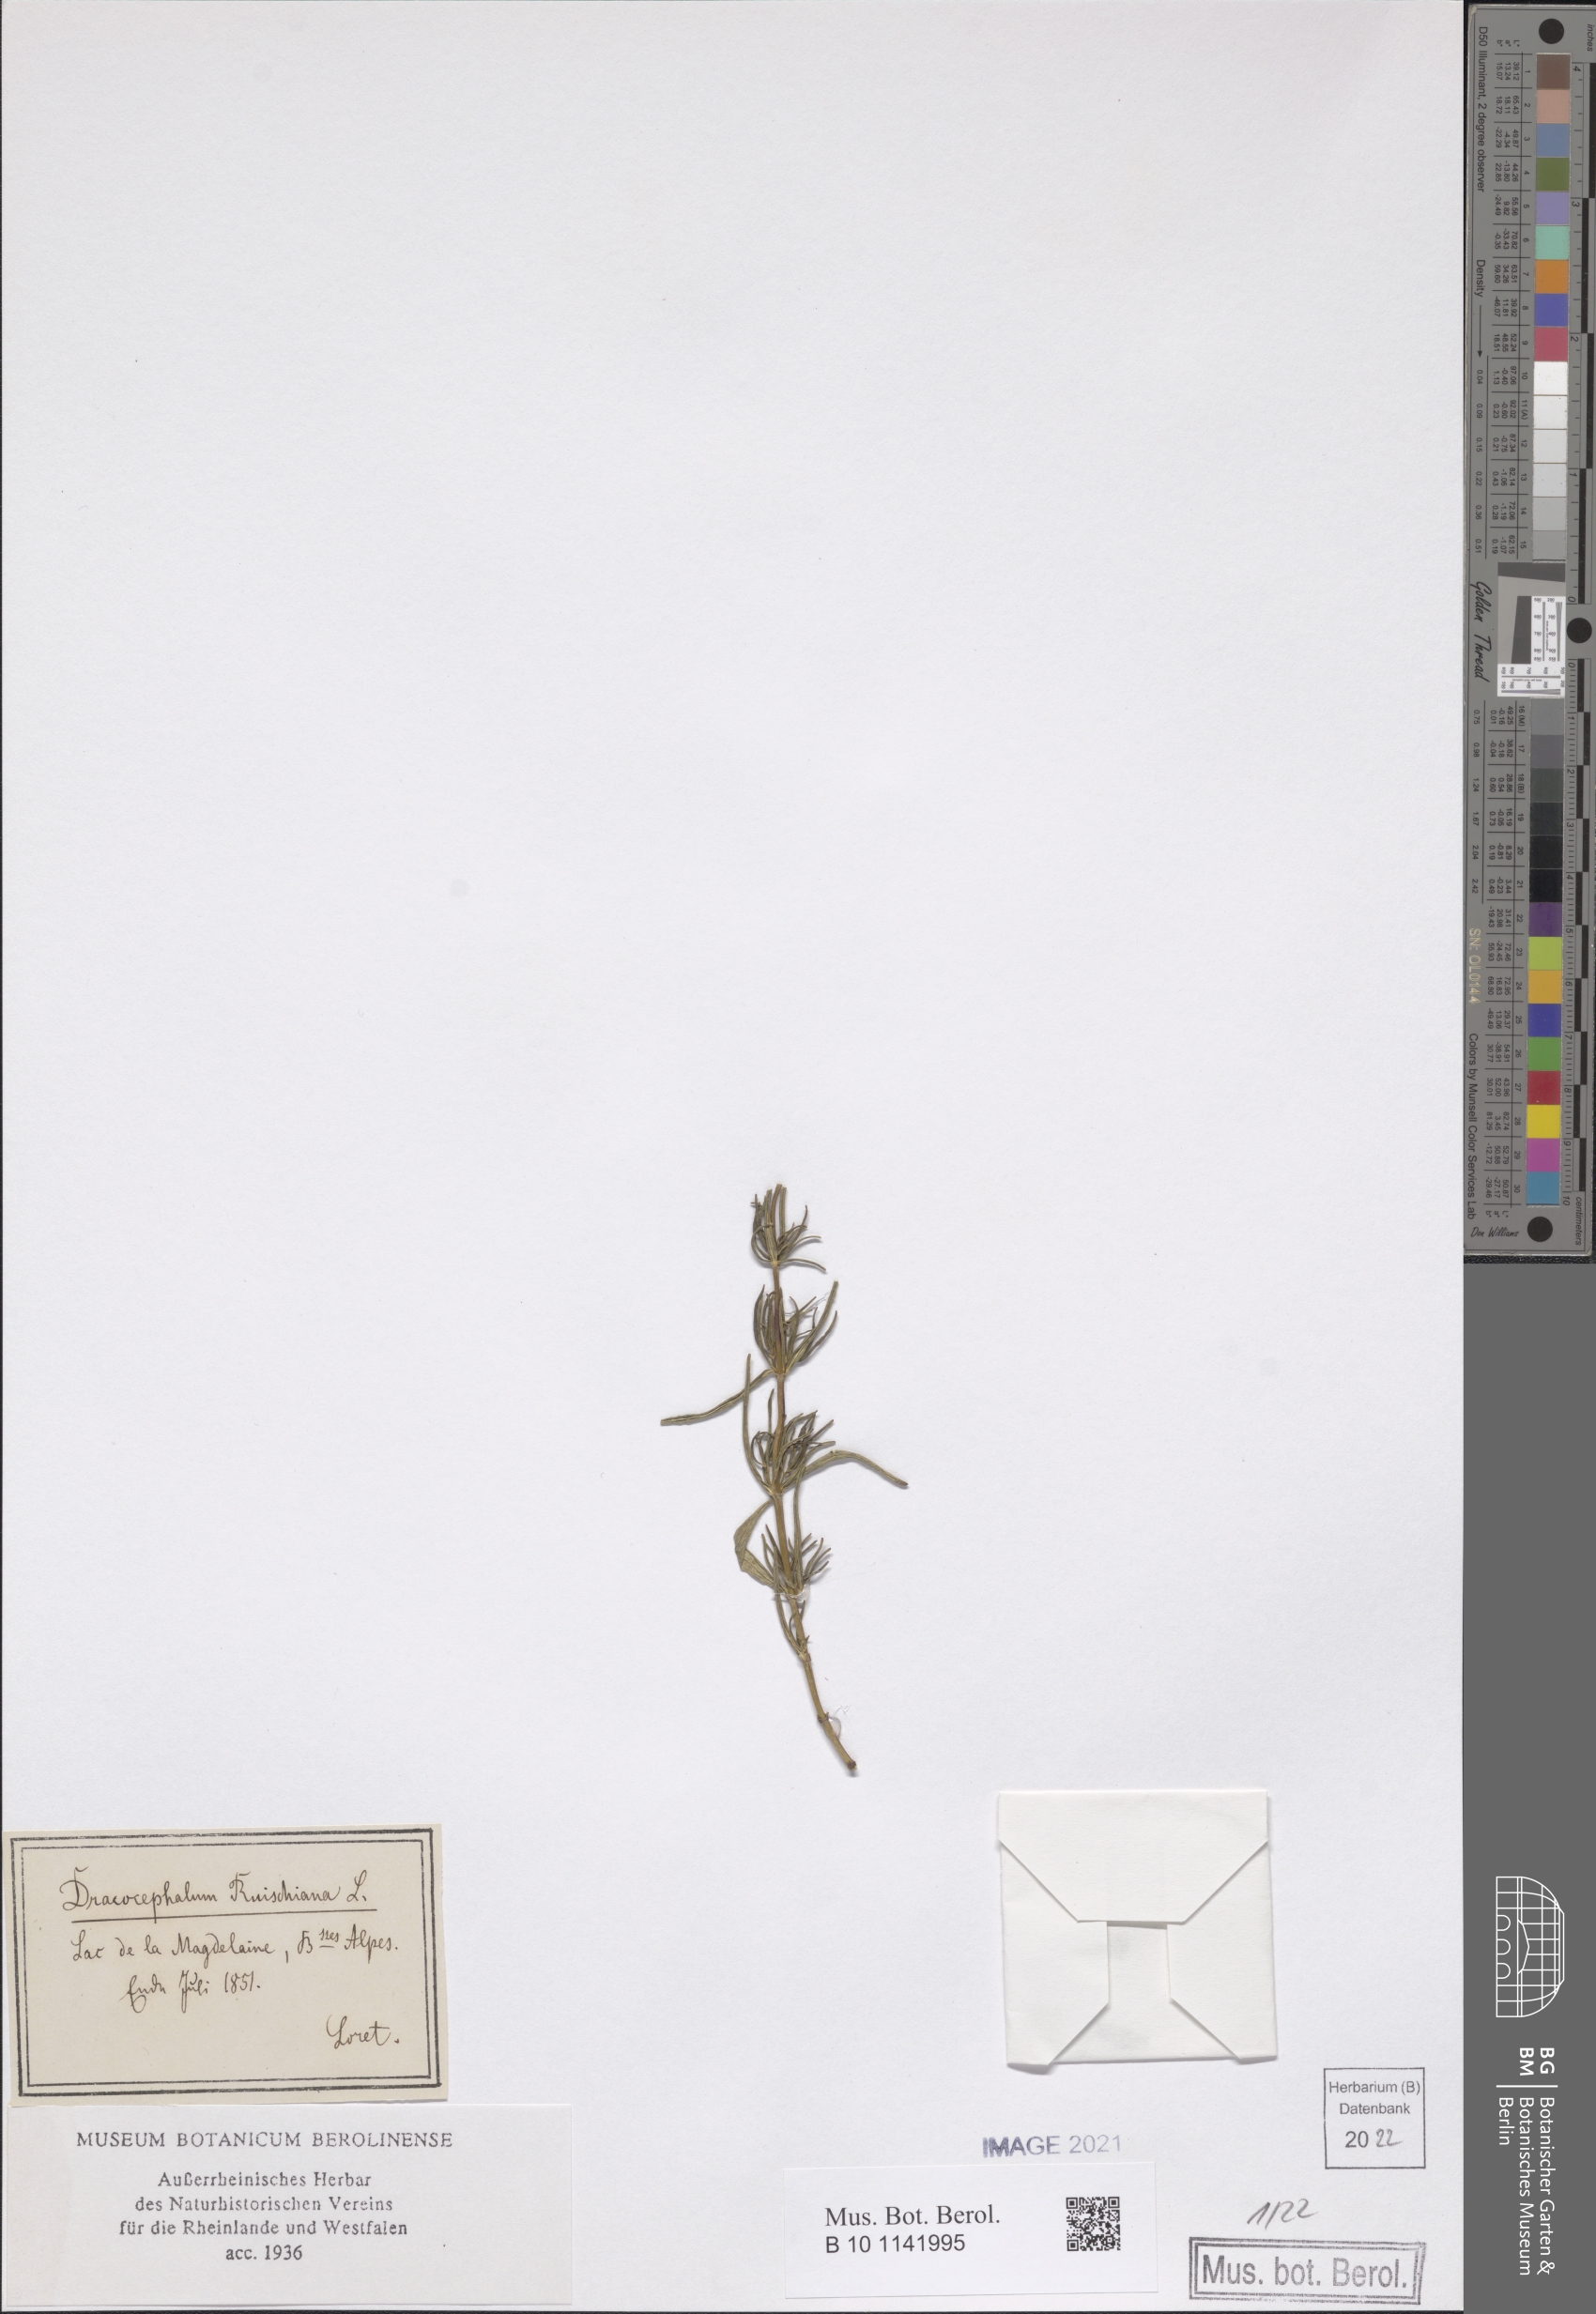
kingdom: Plantae
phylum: Tracheophyta
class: Magnoliopsida
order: Lamiales
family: Lamiaceae
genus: Dracocephalum
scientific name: Dracocephalum ruyschiana
